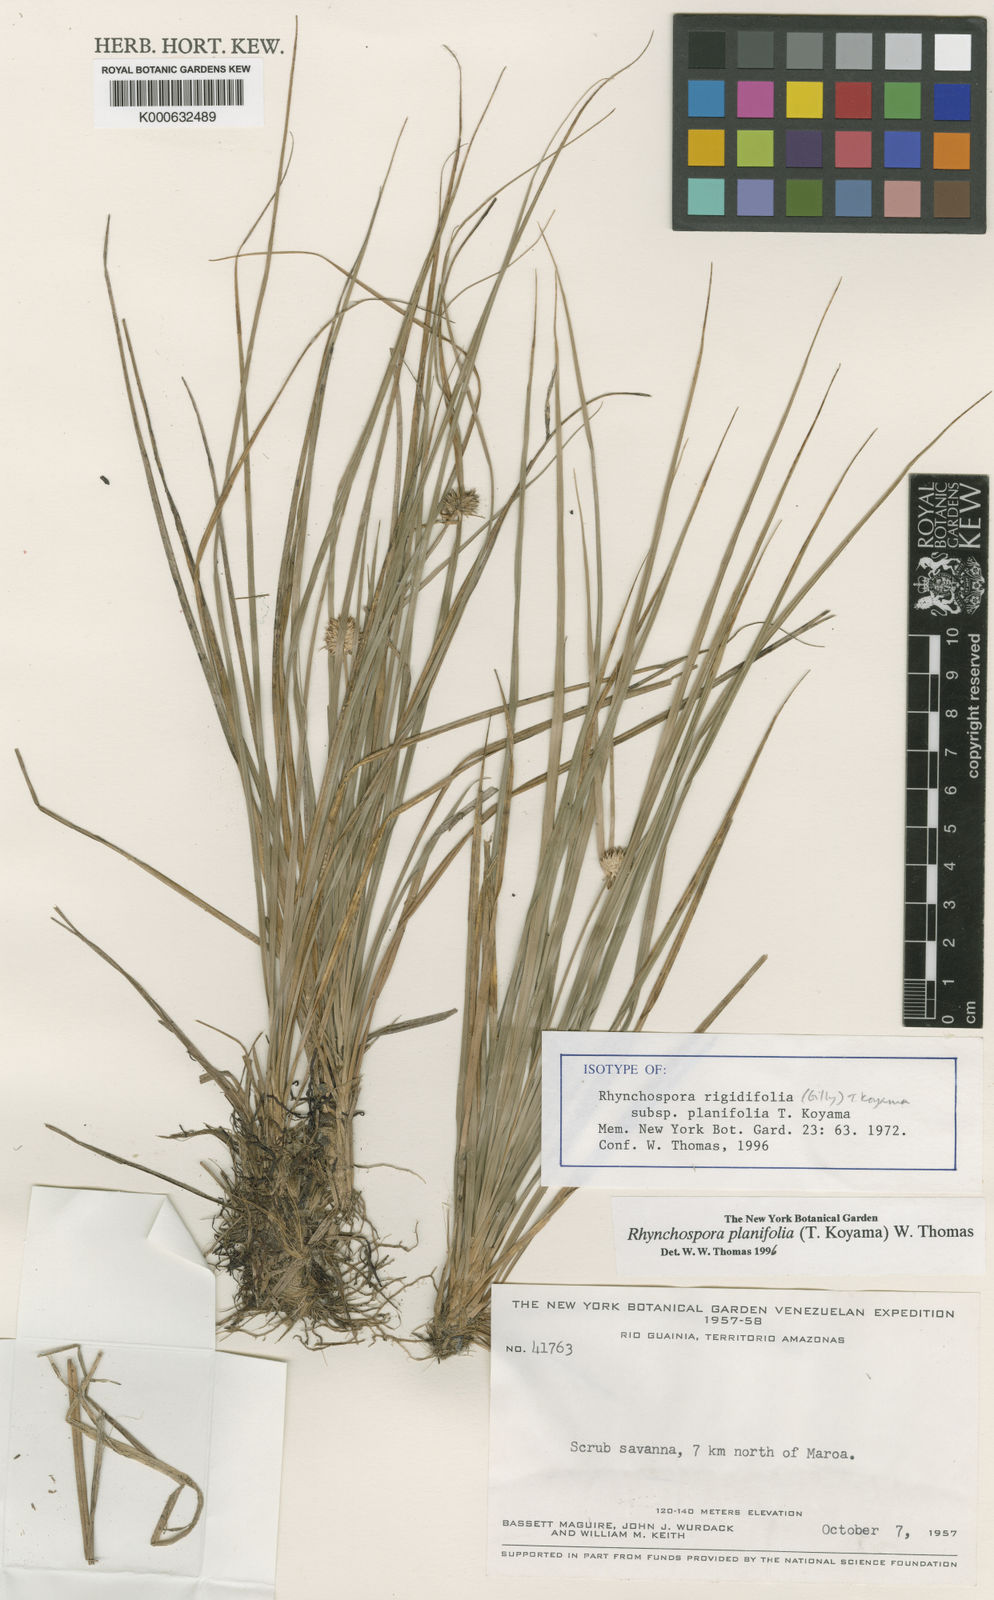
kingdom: Plantae
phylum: Tracheophyta
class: Liliopsida
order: Poales
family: Cyperaceae
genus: Rhynchospora
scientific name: Rhynchospora planifolia
